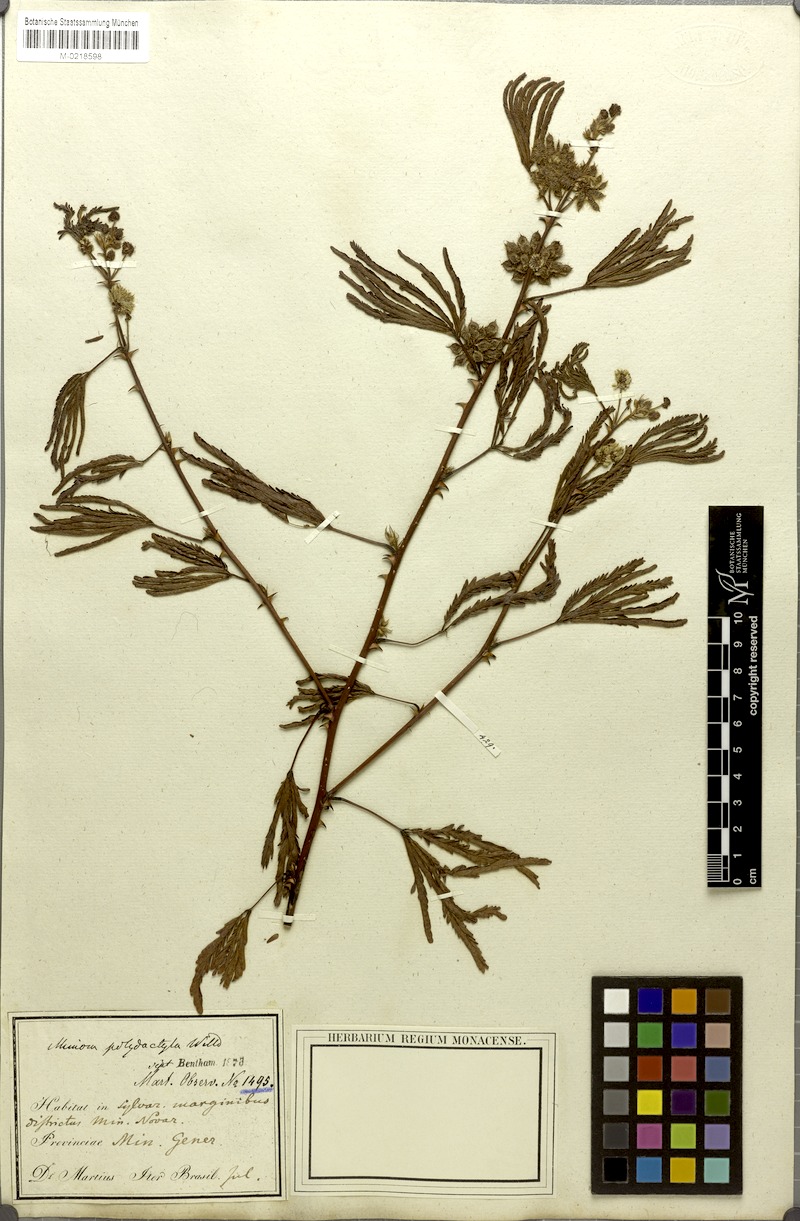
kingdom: Plantae
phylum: Tracheophyta
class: Magnoliopsida
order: Fabales
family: Fabaceae
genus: Mimosa
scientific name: Mimosa polydactyla
